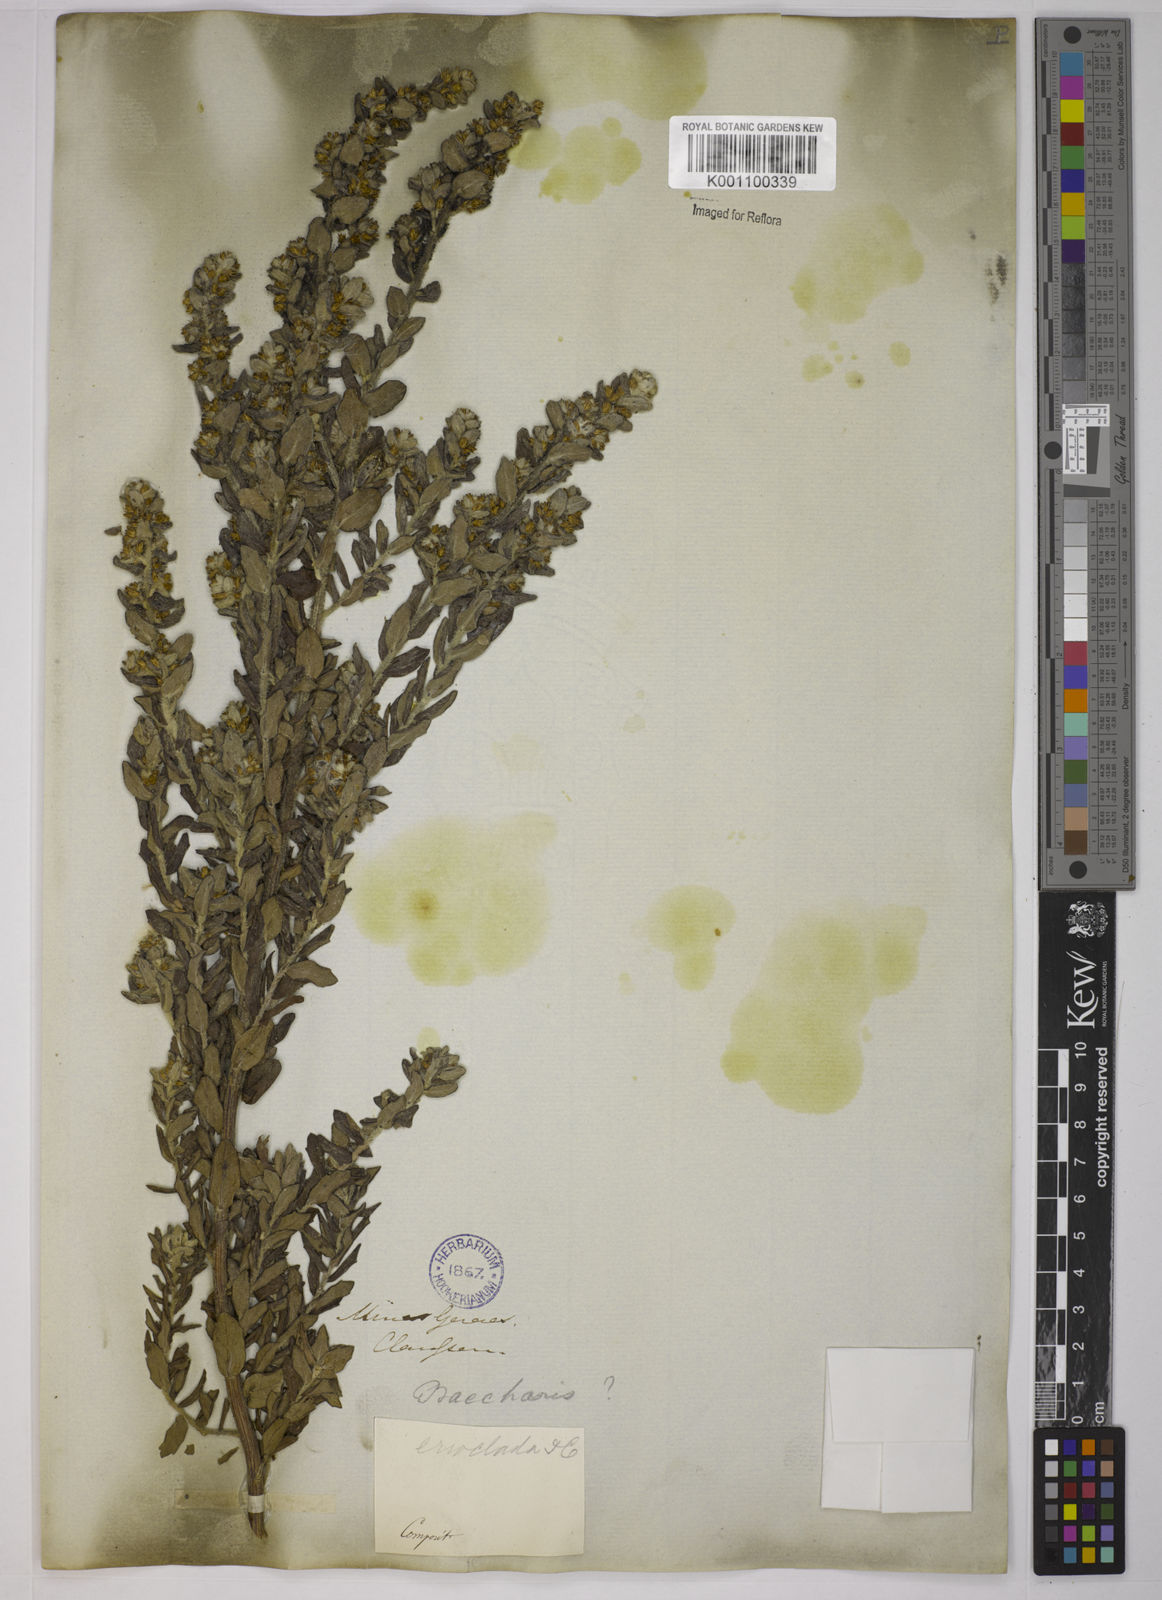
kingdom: Plantae
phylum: Tracheophyta
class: Magnoliopsida
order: Asterales
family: Asteraceae
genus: Baccharis
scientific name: Baccharis erioclada
